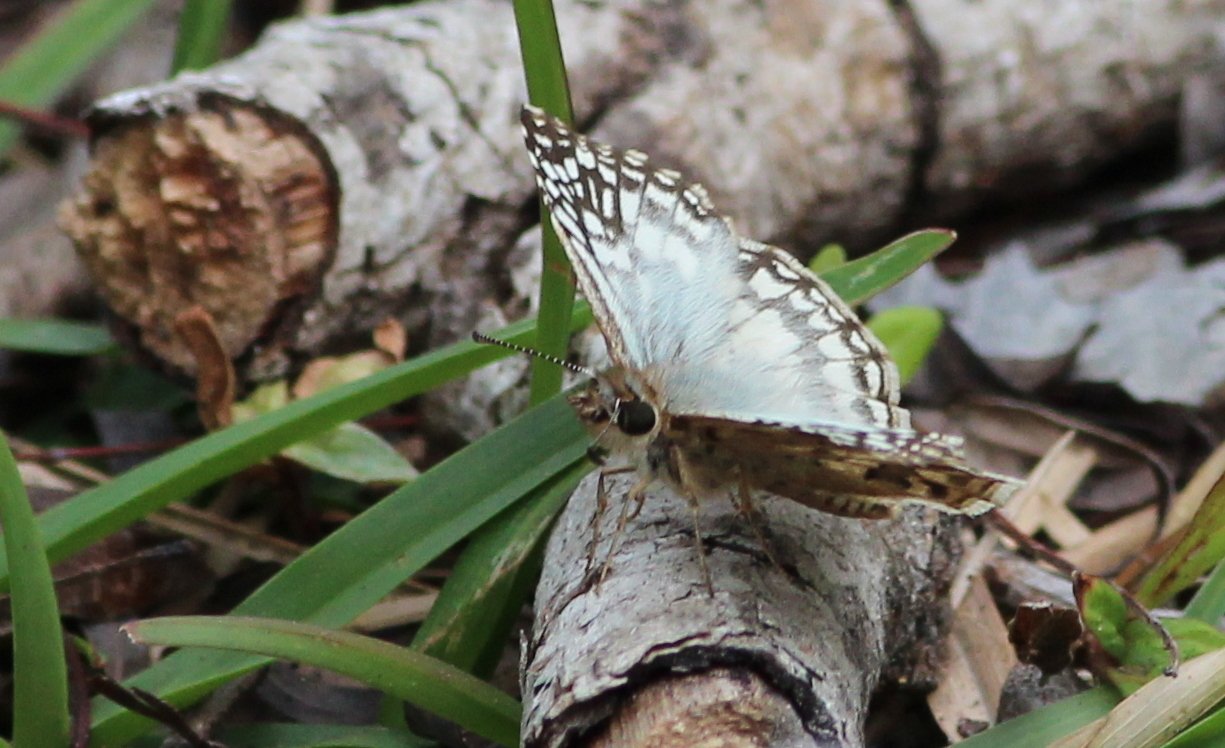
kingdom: Animalia
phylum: Arthropoda
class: Insecta
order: Lepidoptera
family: Hesperiidae
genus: Pyrgus
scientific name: Pyrgus oileus
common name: Tropical Checkered-Skipper
